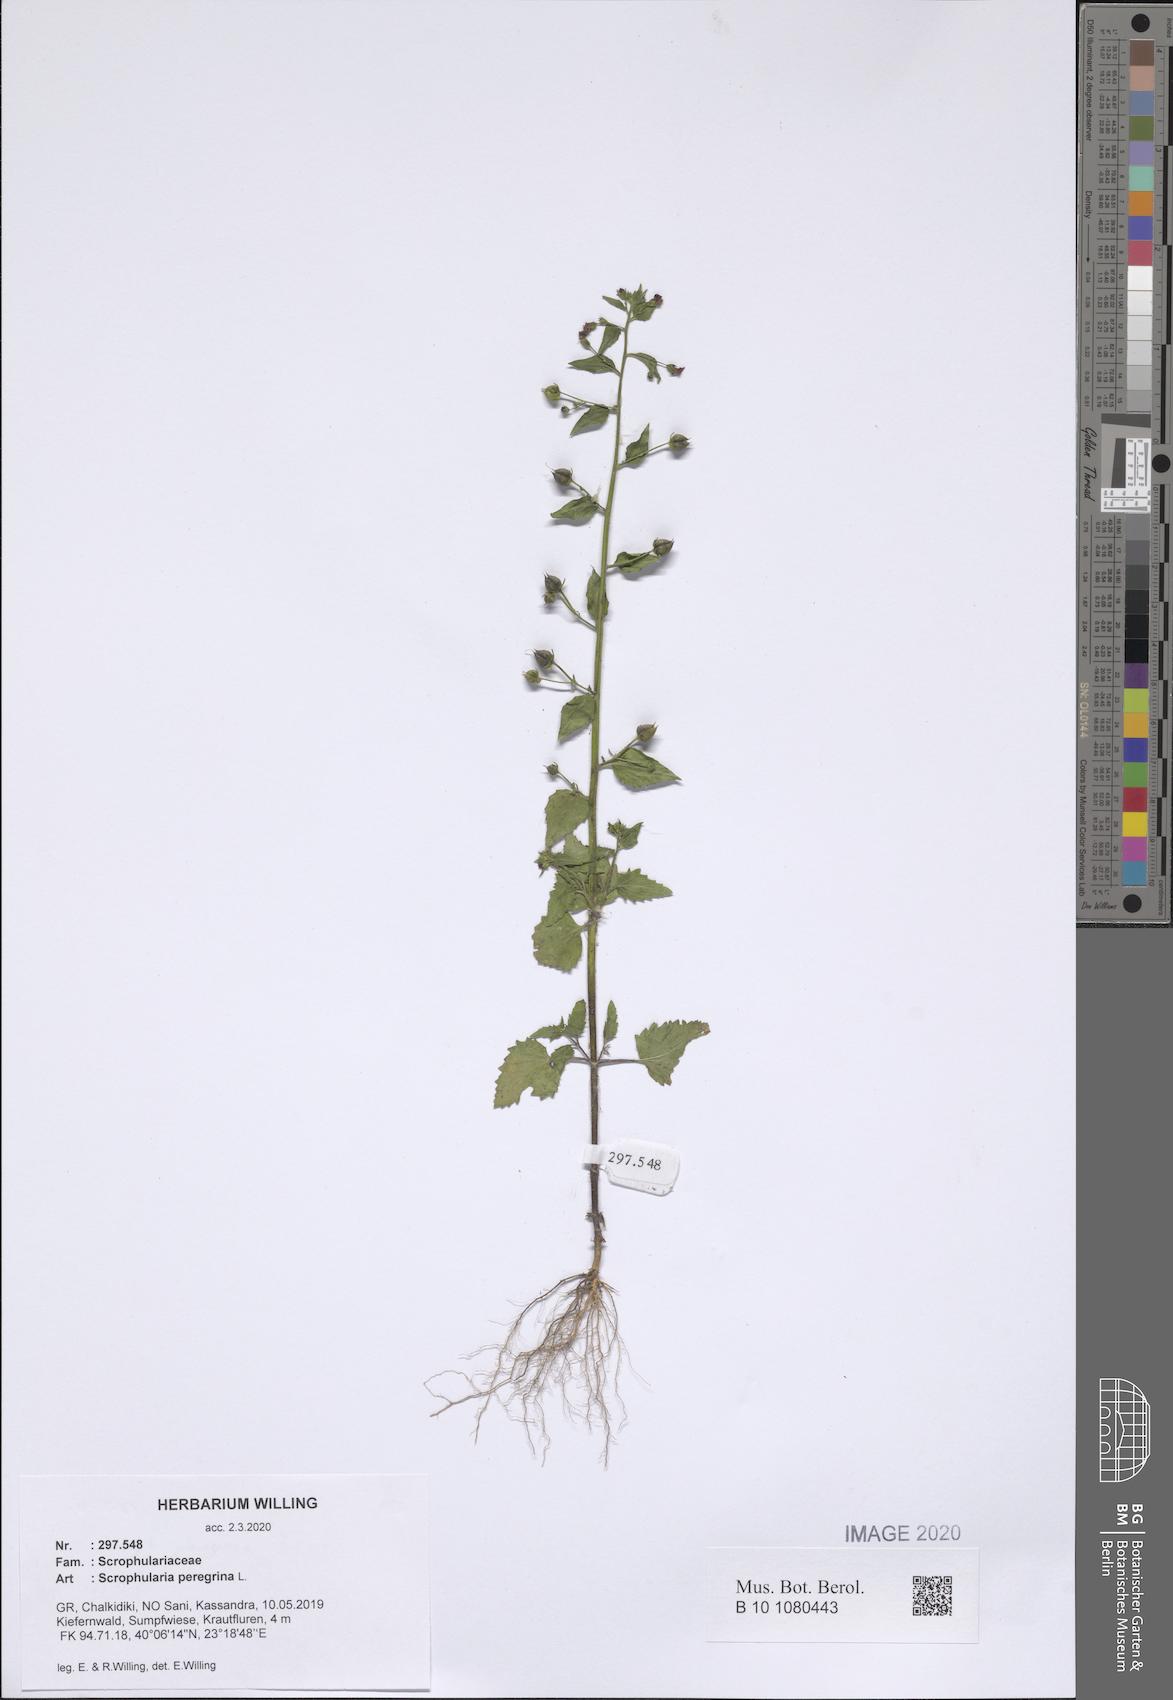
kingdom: Plantae
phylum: Tracheophyta
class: Magnoliopsida
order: Lamiales
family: Scrophulariaceae
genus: Scrophularia
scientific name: Scrophularia peregrina
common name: Mediterranean figwort
